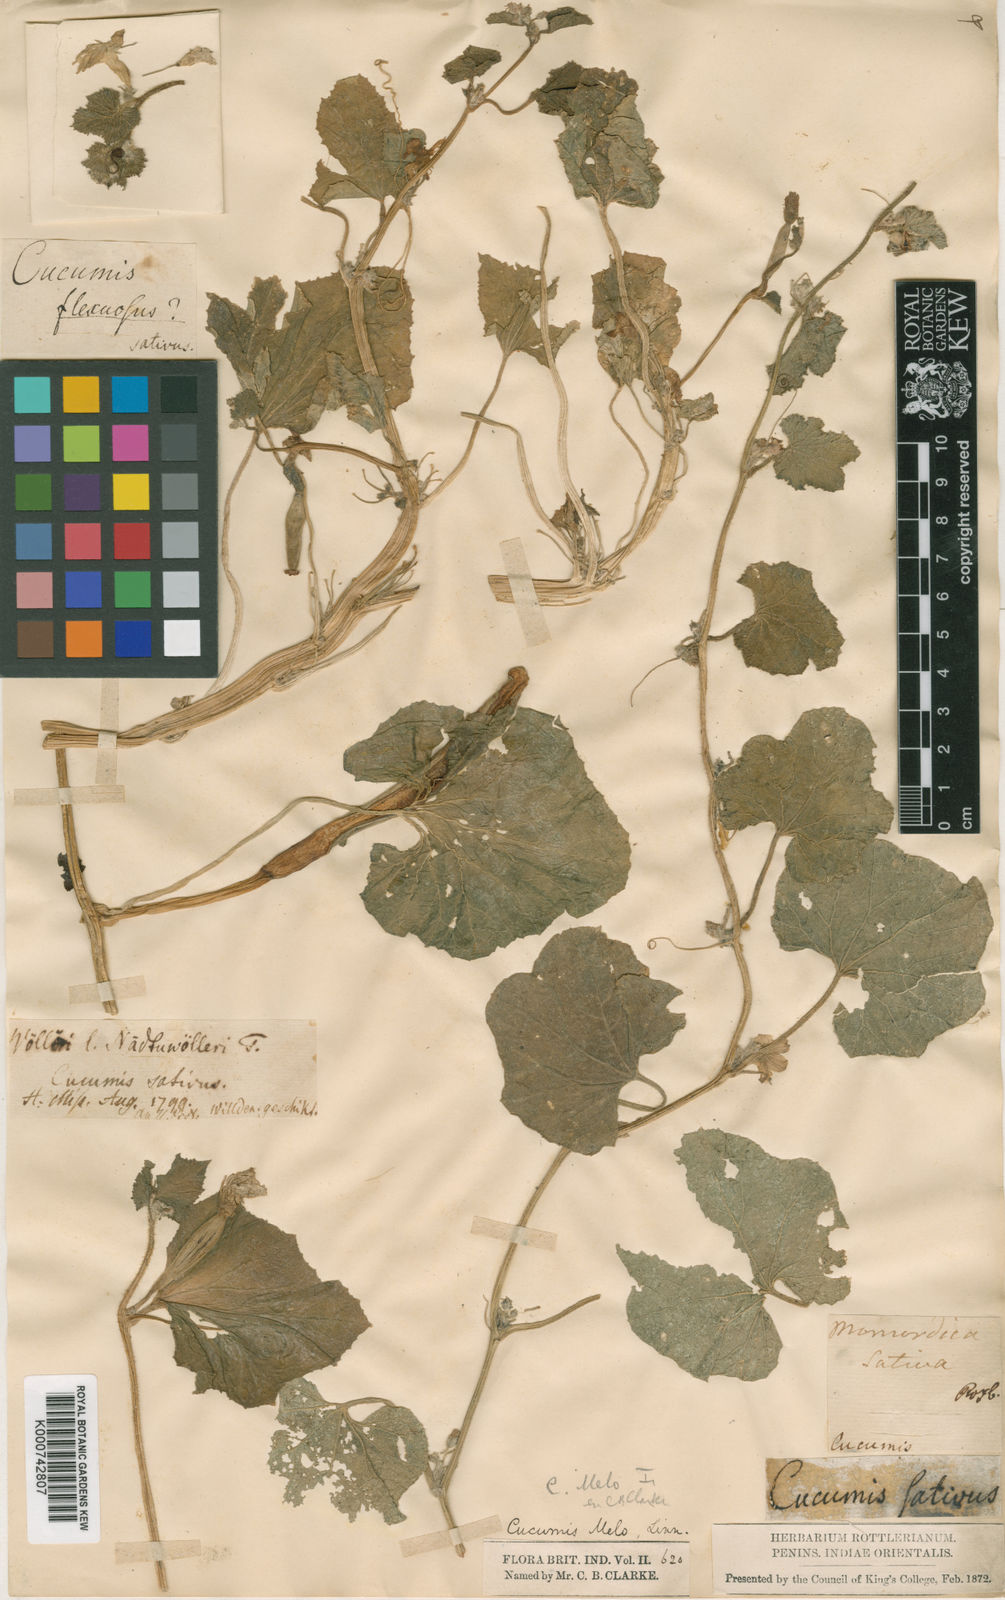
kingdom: Plantae
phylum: Tracheophyta
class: Magnoliopsida
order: Cucurbitales
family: Cucurbitaceae
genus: Cucumis
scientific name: Cucumis melo
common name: Melon
